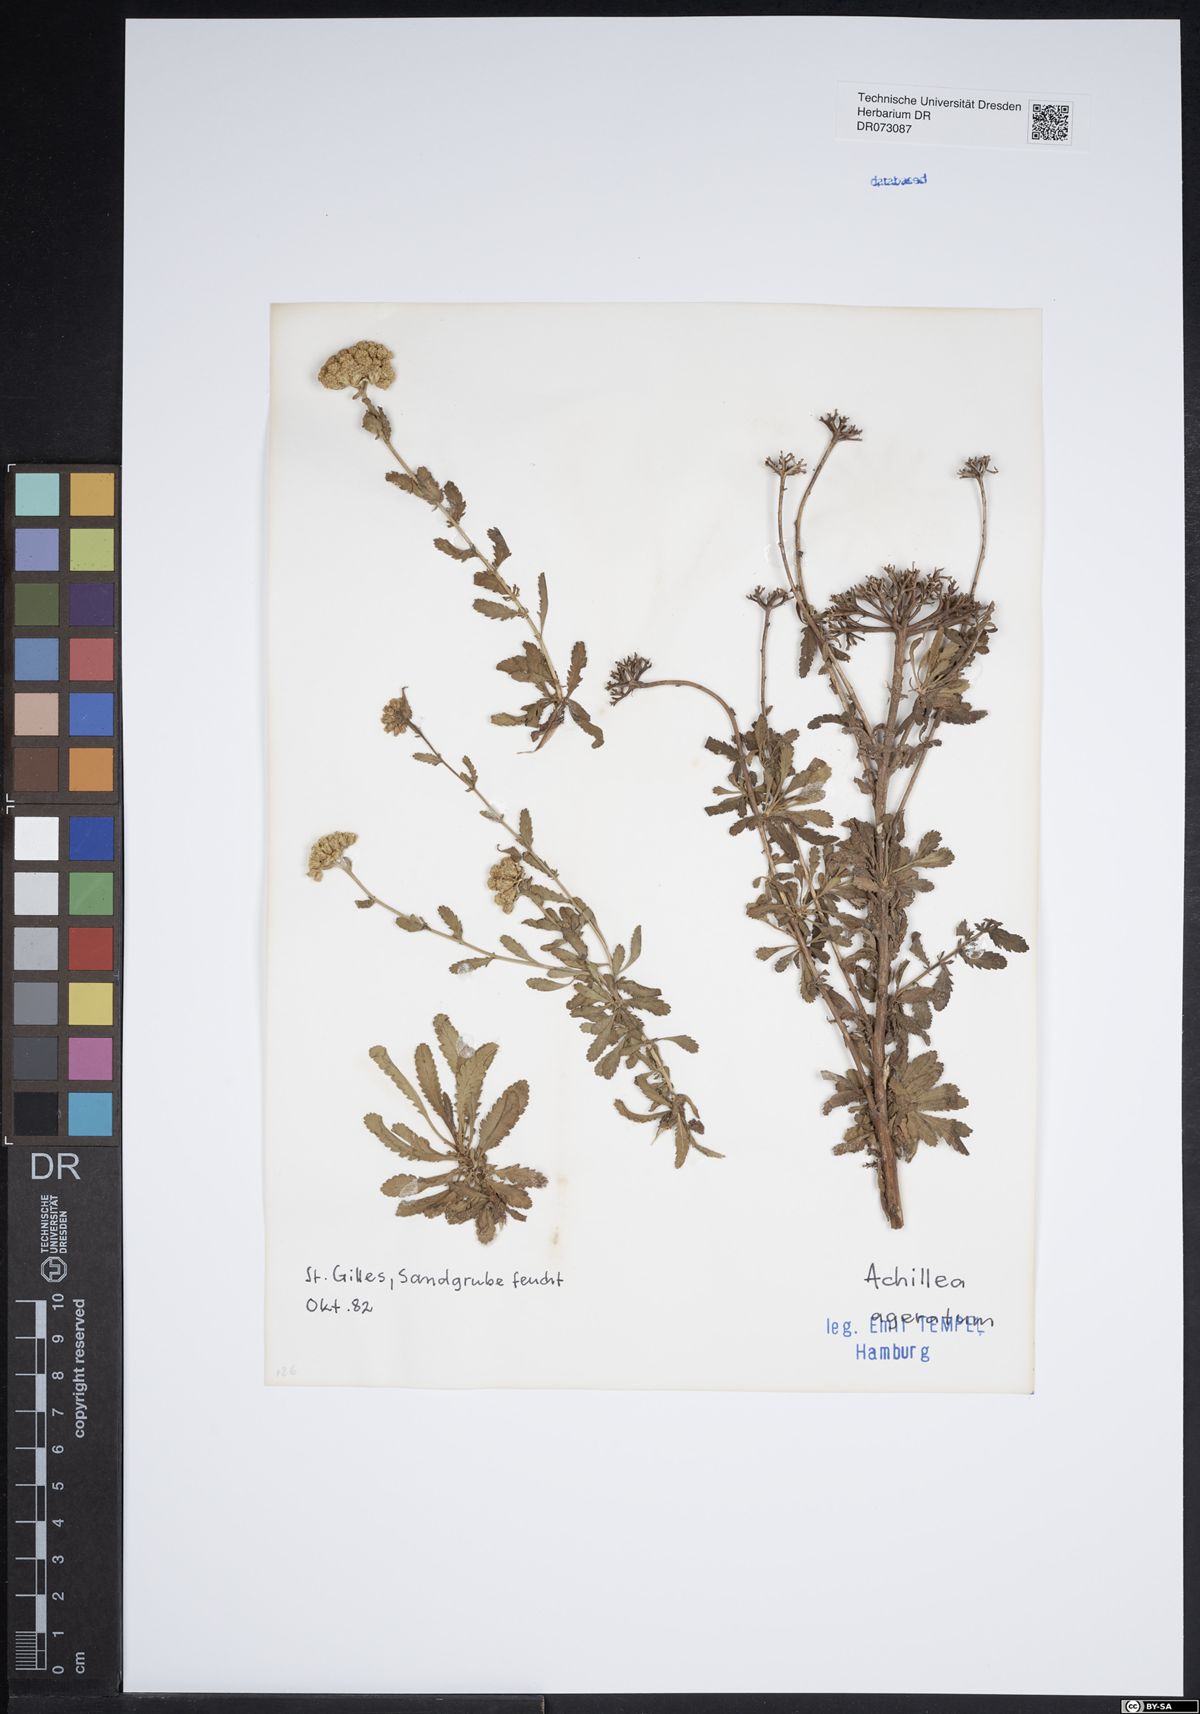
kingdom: Plantae
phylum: Tracheophyta
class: Magnoliopsida
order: Asterales
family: Asteraceae
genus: Pseudognaphalium
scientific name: Pseudognaphalium undulatum
